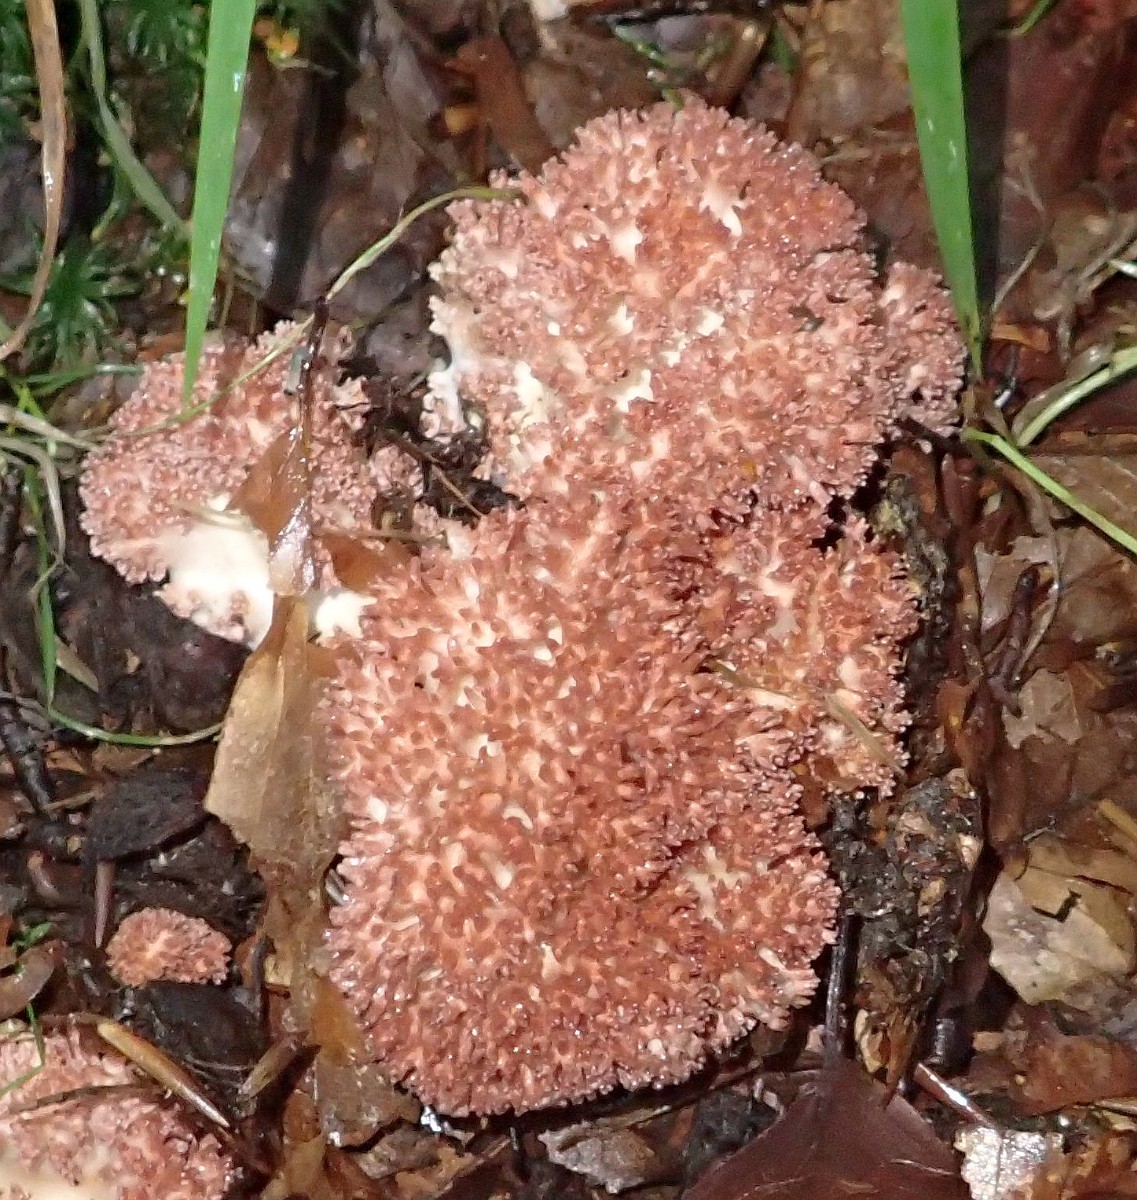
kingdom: Fungi
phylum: Basidiomycota
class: Agaricomycetes
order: Gomphales
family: Gomphaceae
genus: Ramaria
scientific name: Ramaria botrytis
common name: drue-koralsvamp
